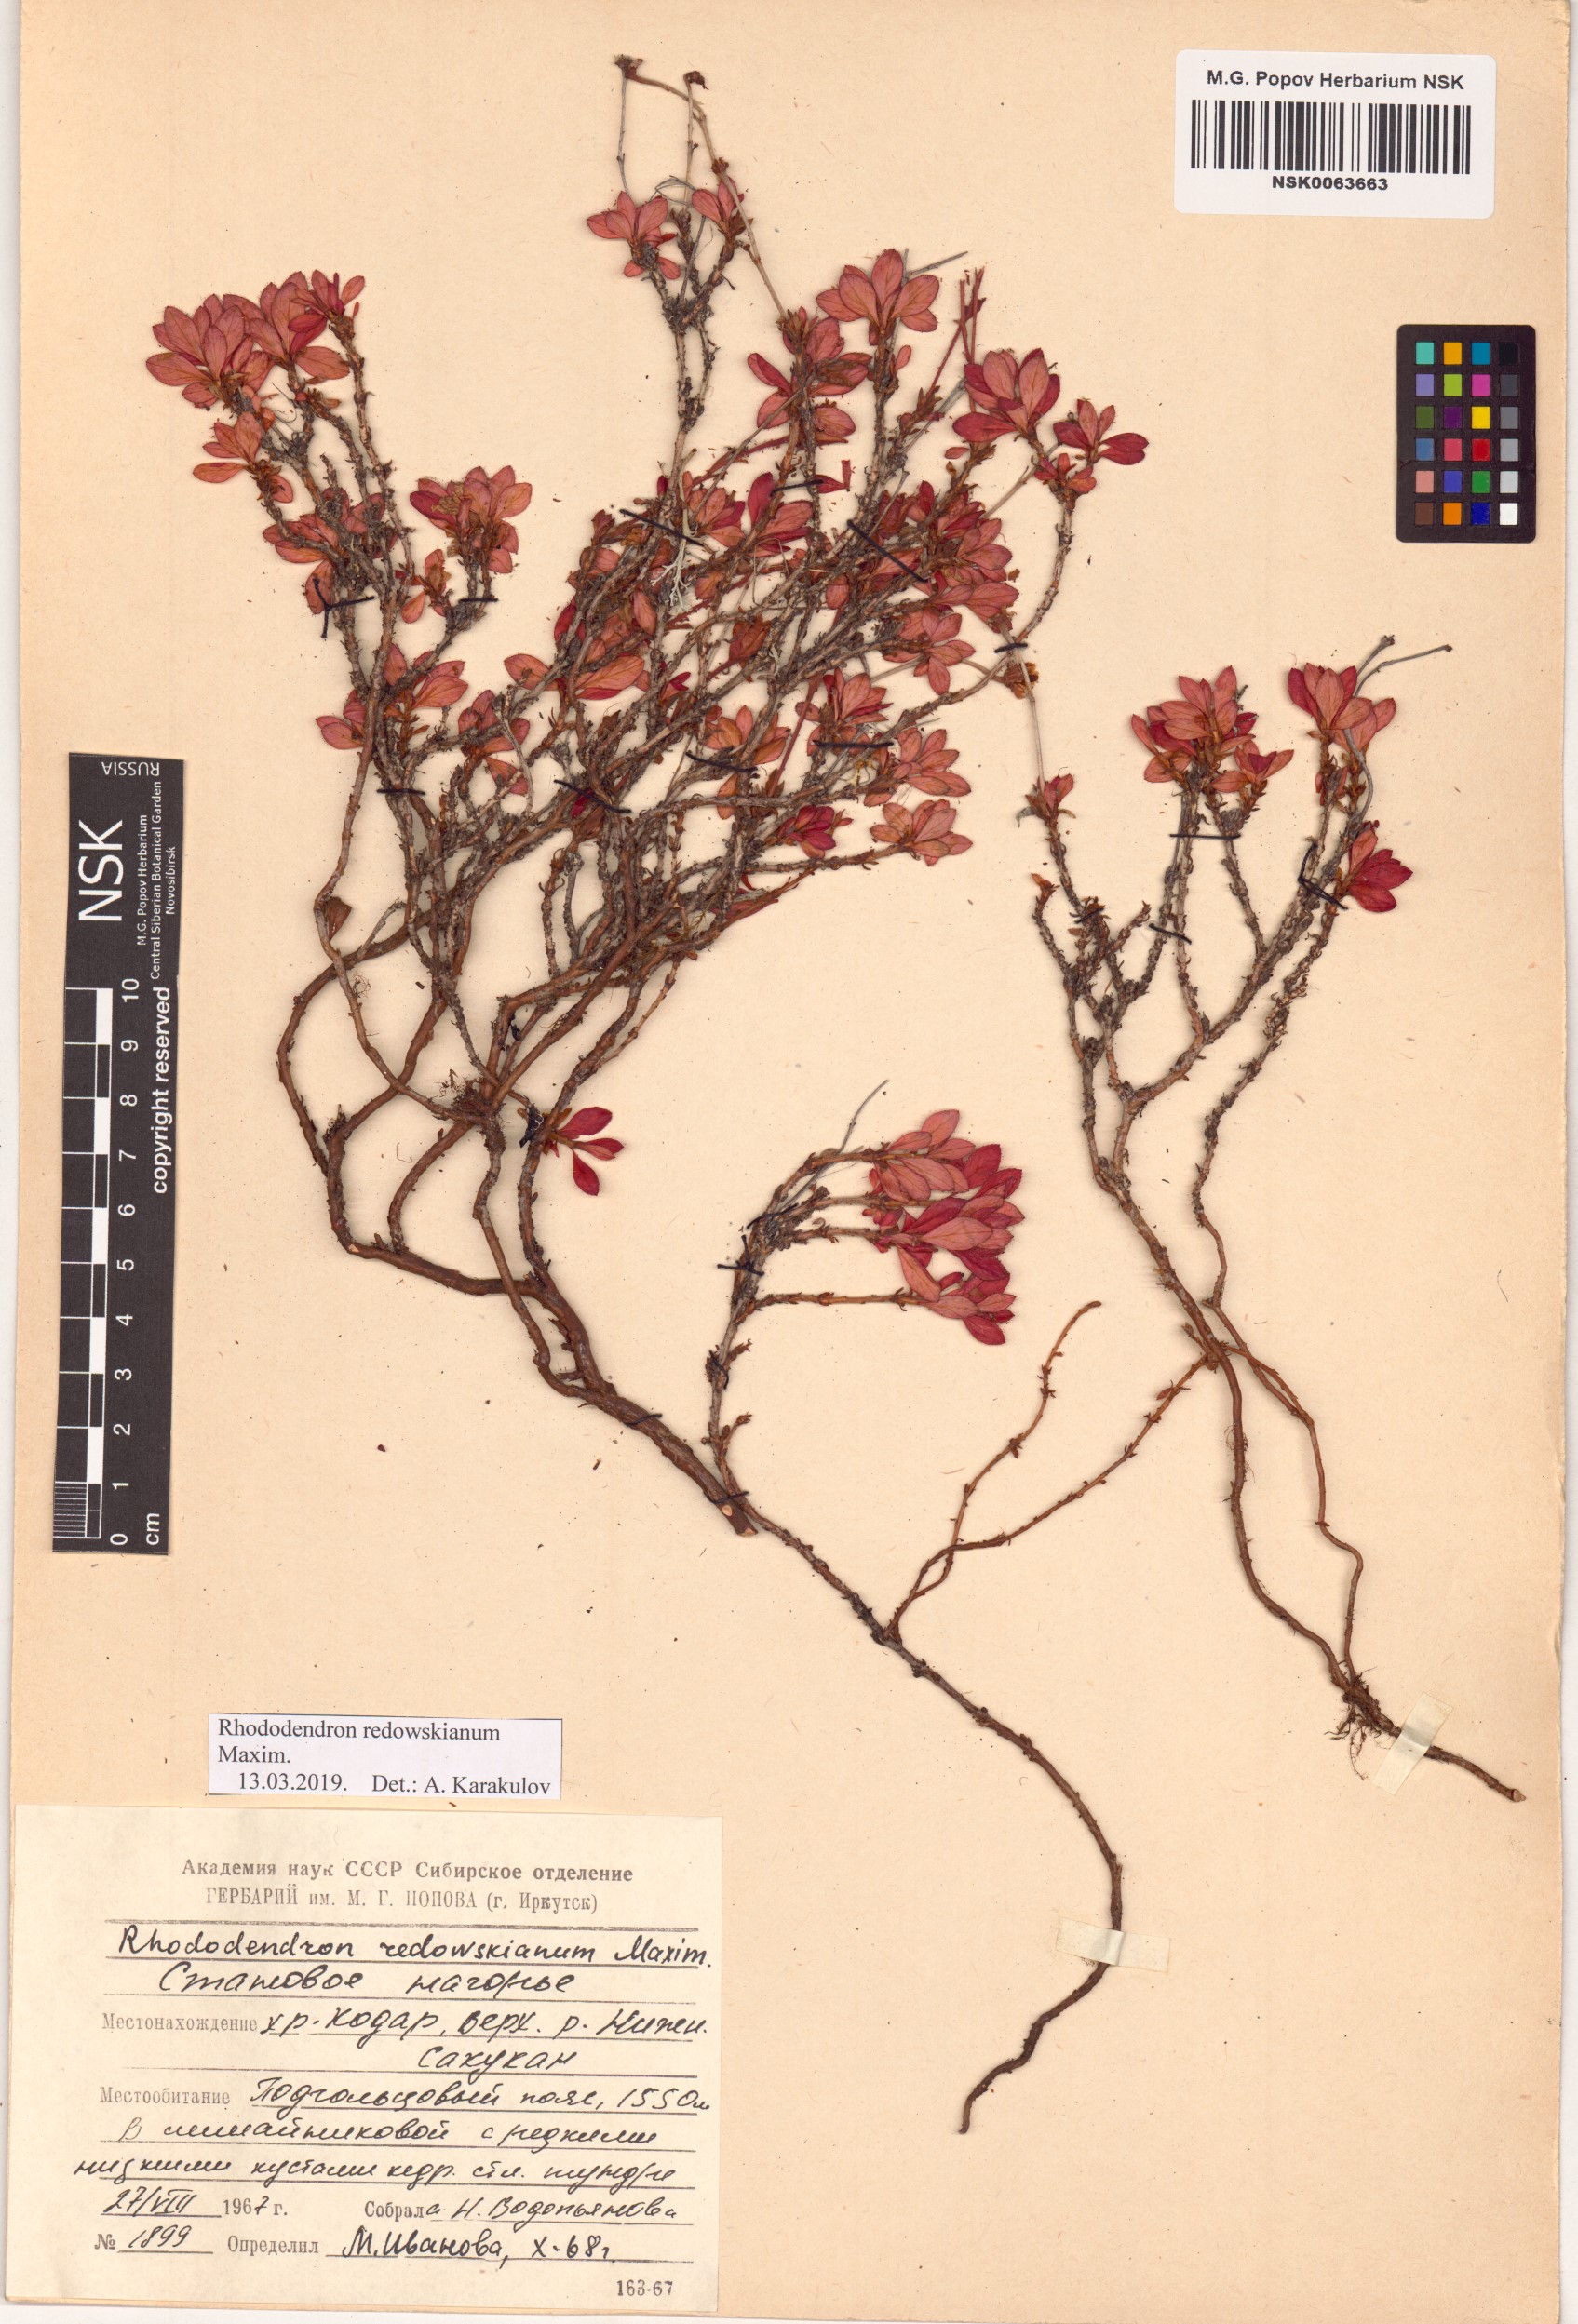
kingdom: Plantae
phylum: Tracheophyta
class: Magnoliopsida
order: Ericales
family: Ericaceae
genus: Rhododendron
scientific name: Rhododendron redowskianum
